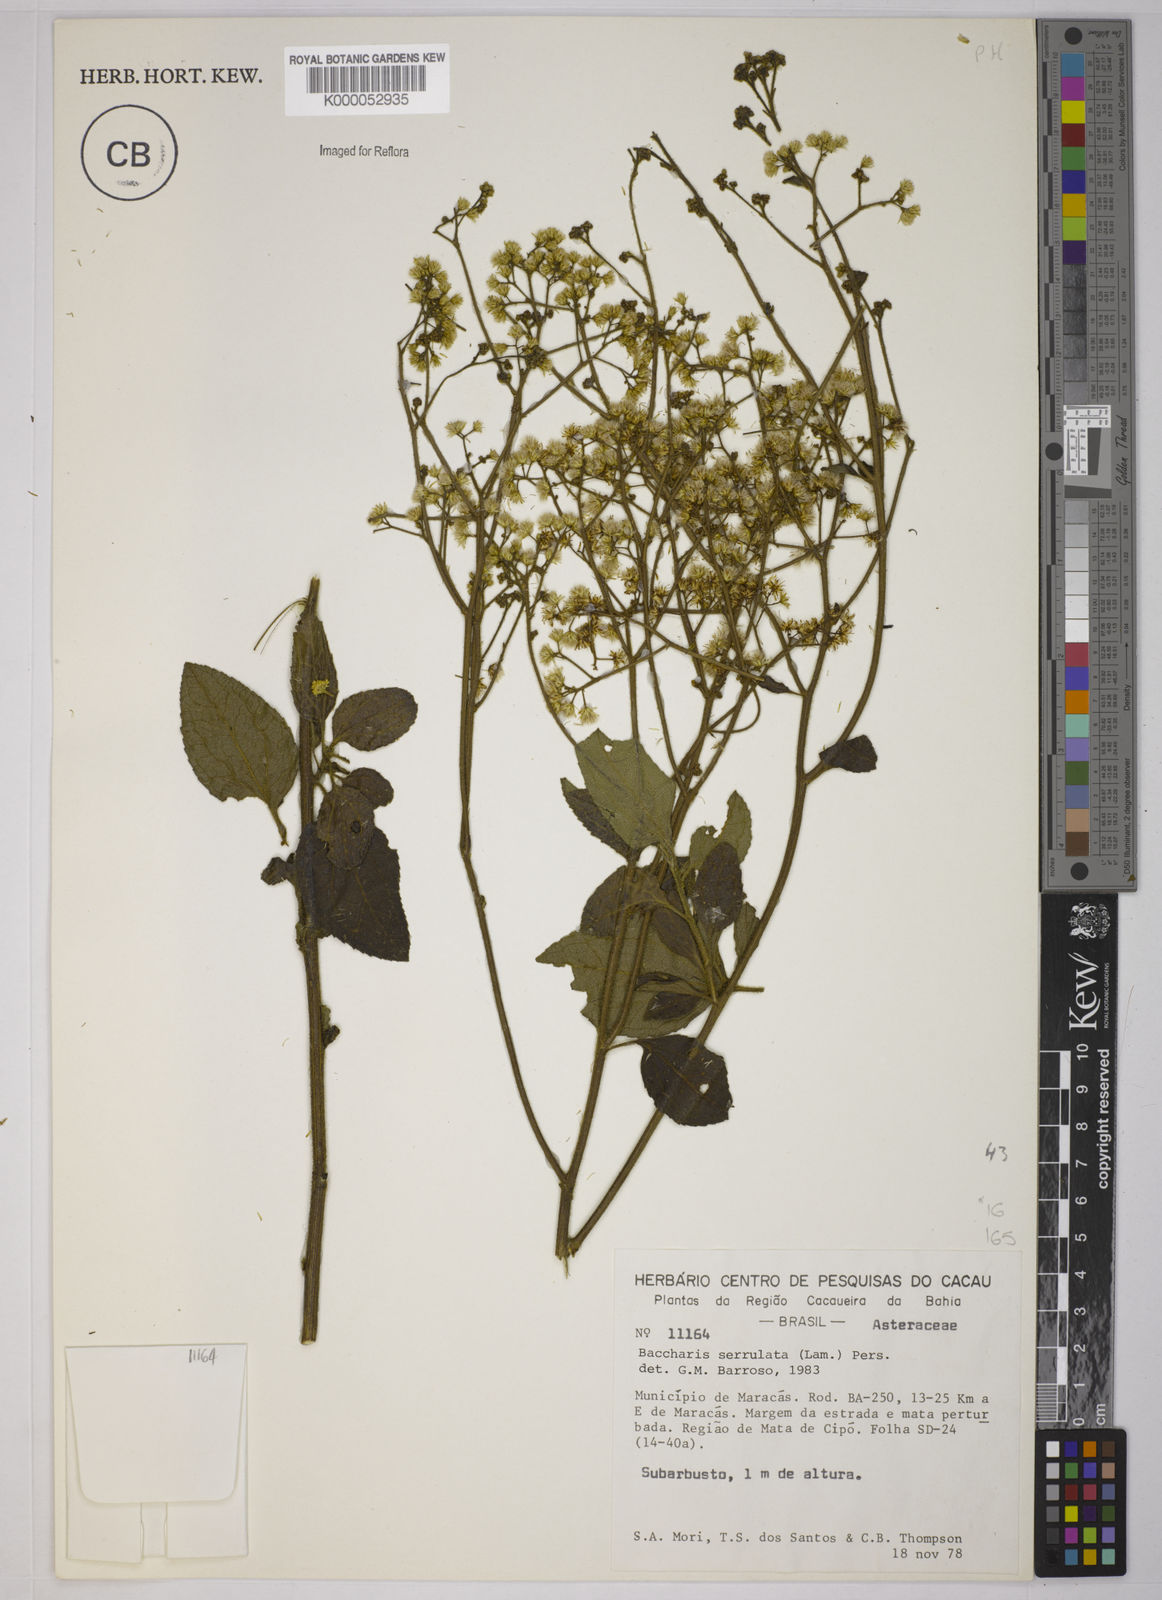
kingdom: Plantae
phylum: Tracheophyta
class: Magnoliopsida
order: Asterales
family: Asteraceae
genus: Baccharis
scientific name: Baccharis serrulata
